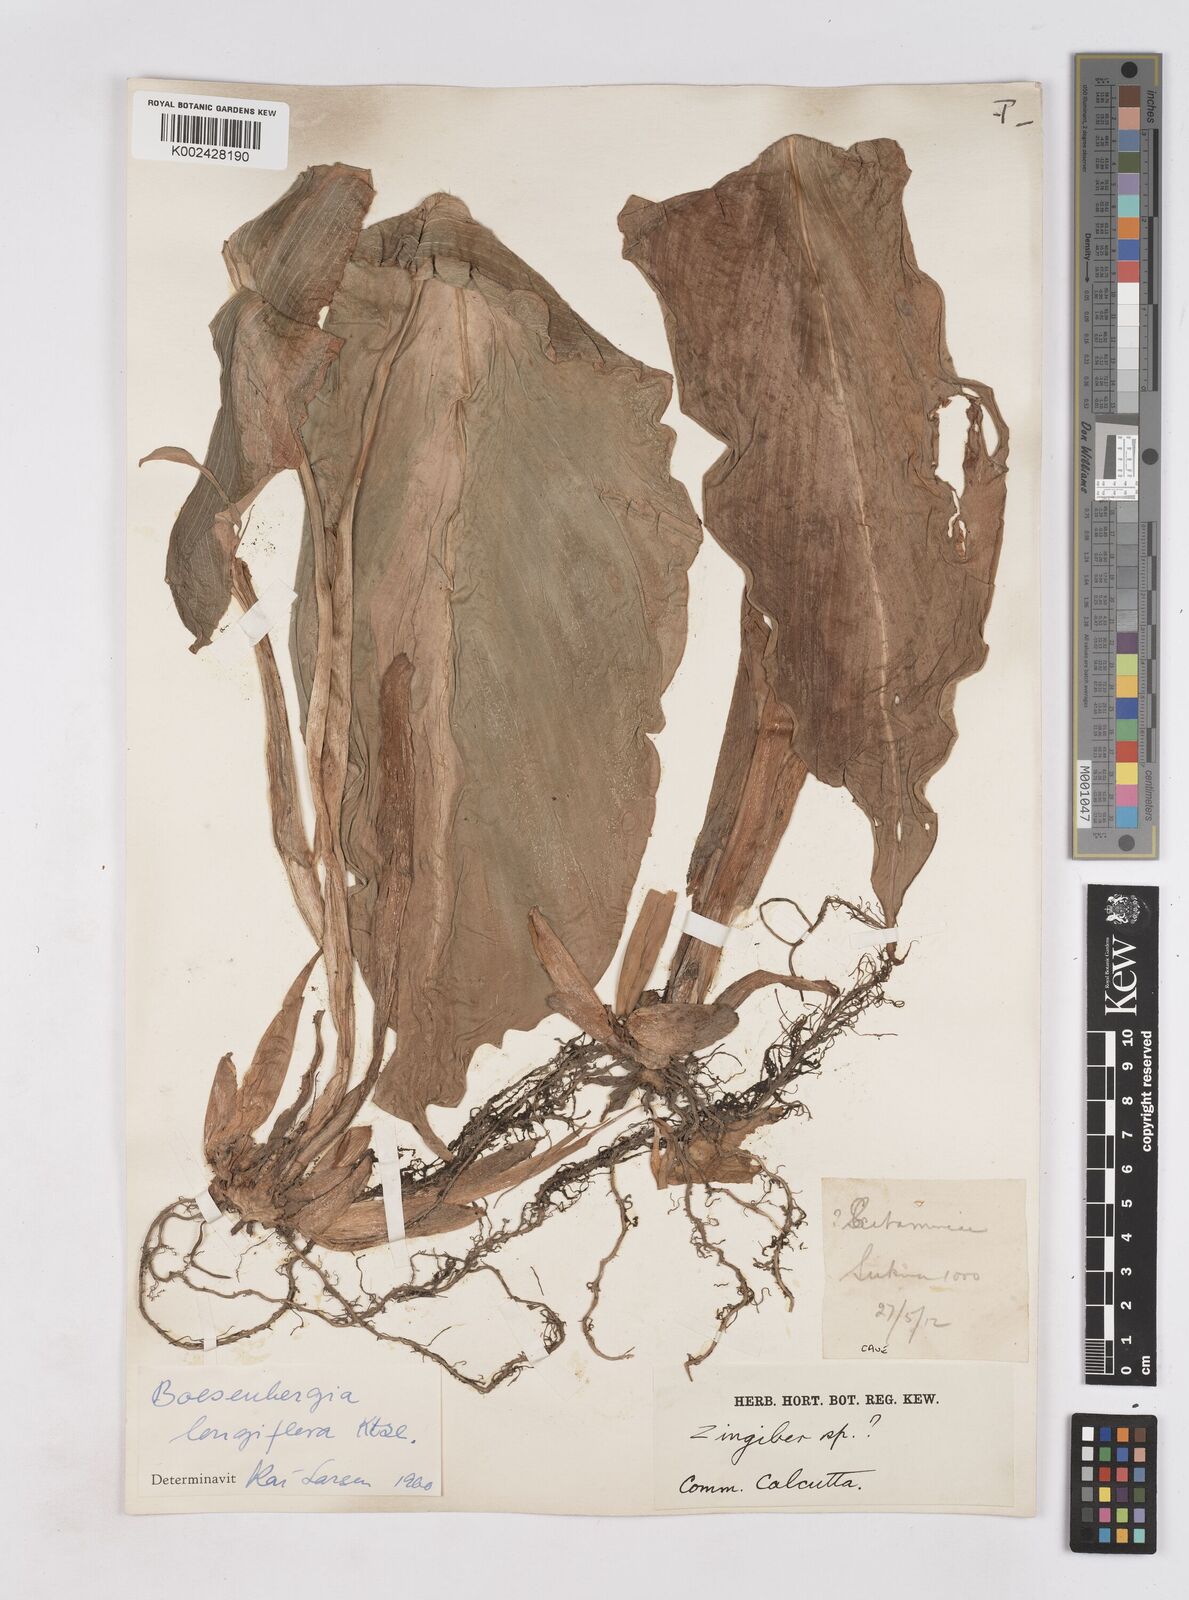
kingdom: Plantae
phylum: Tracheophyta
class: Liliopsida
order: Zingiberales
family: Zingiberaceae
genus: Boesenbergia
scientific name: Boesenbergia longiflora
